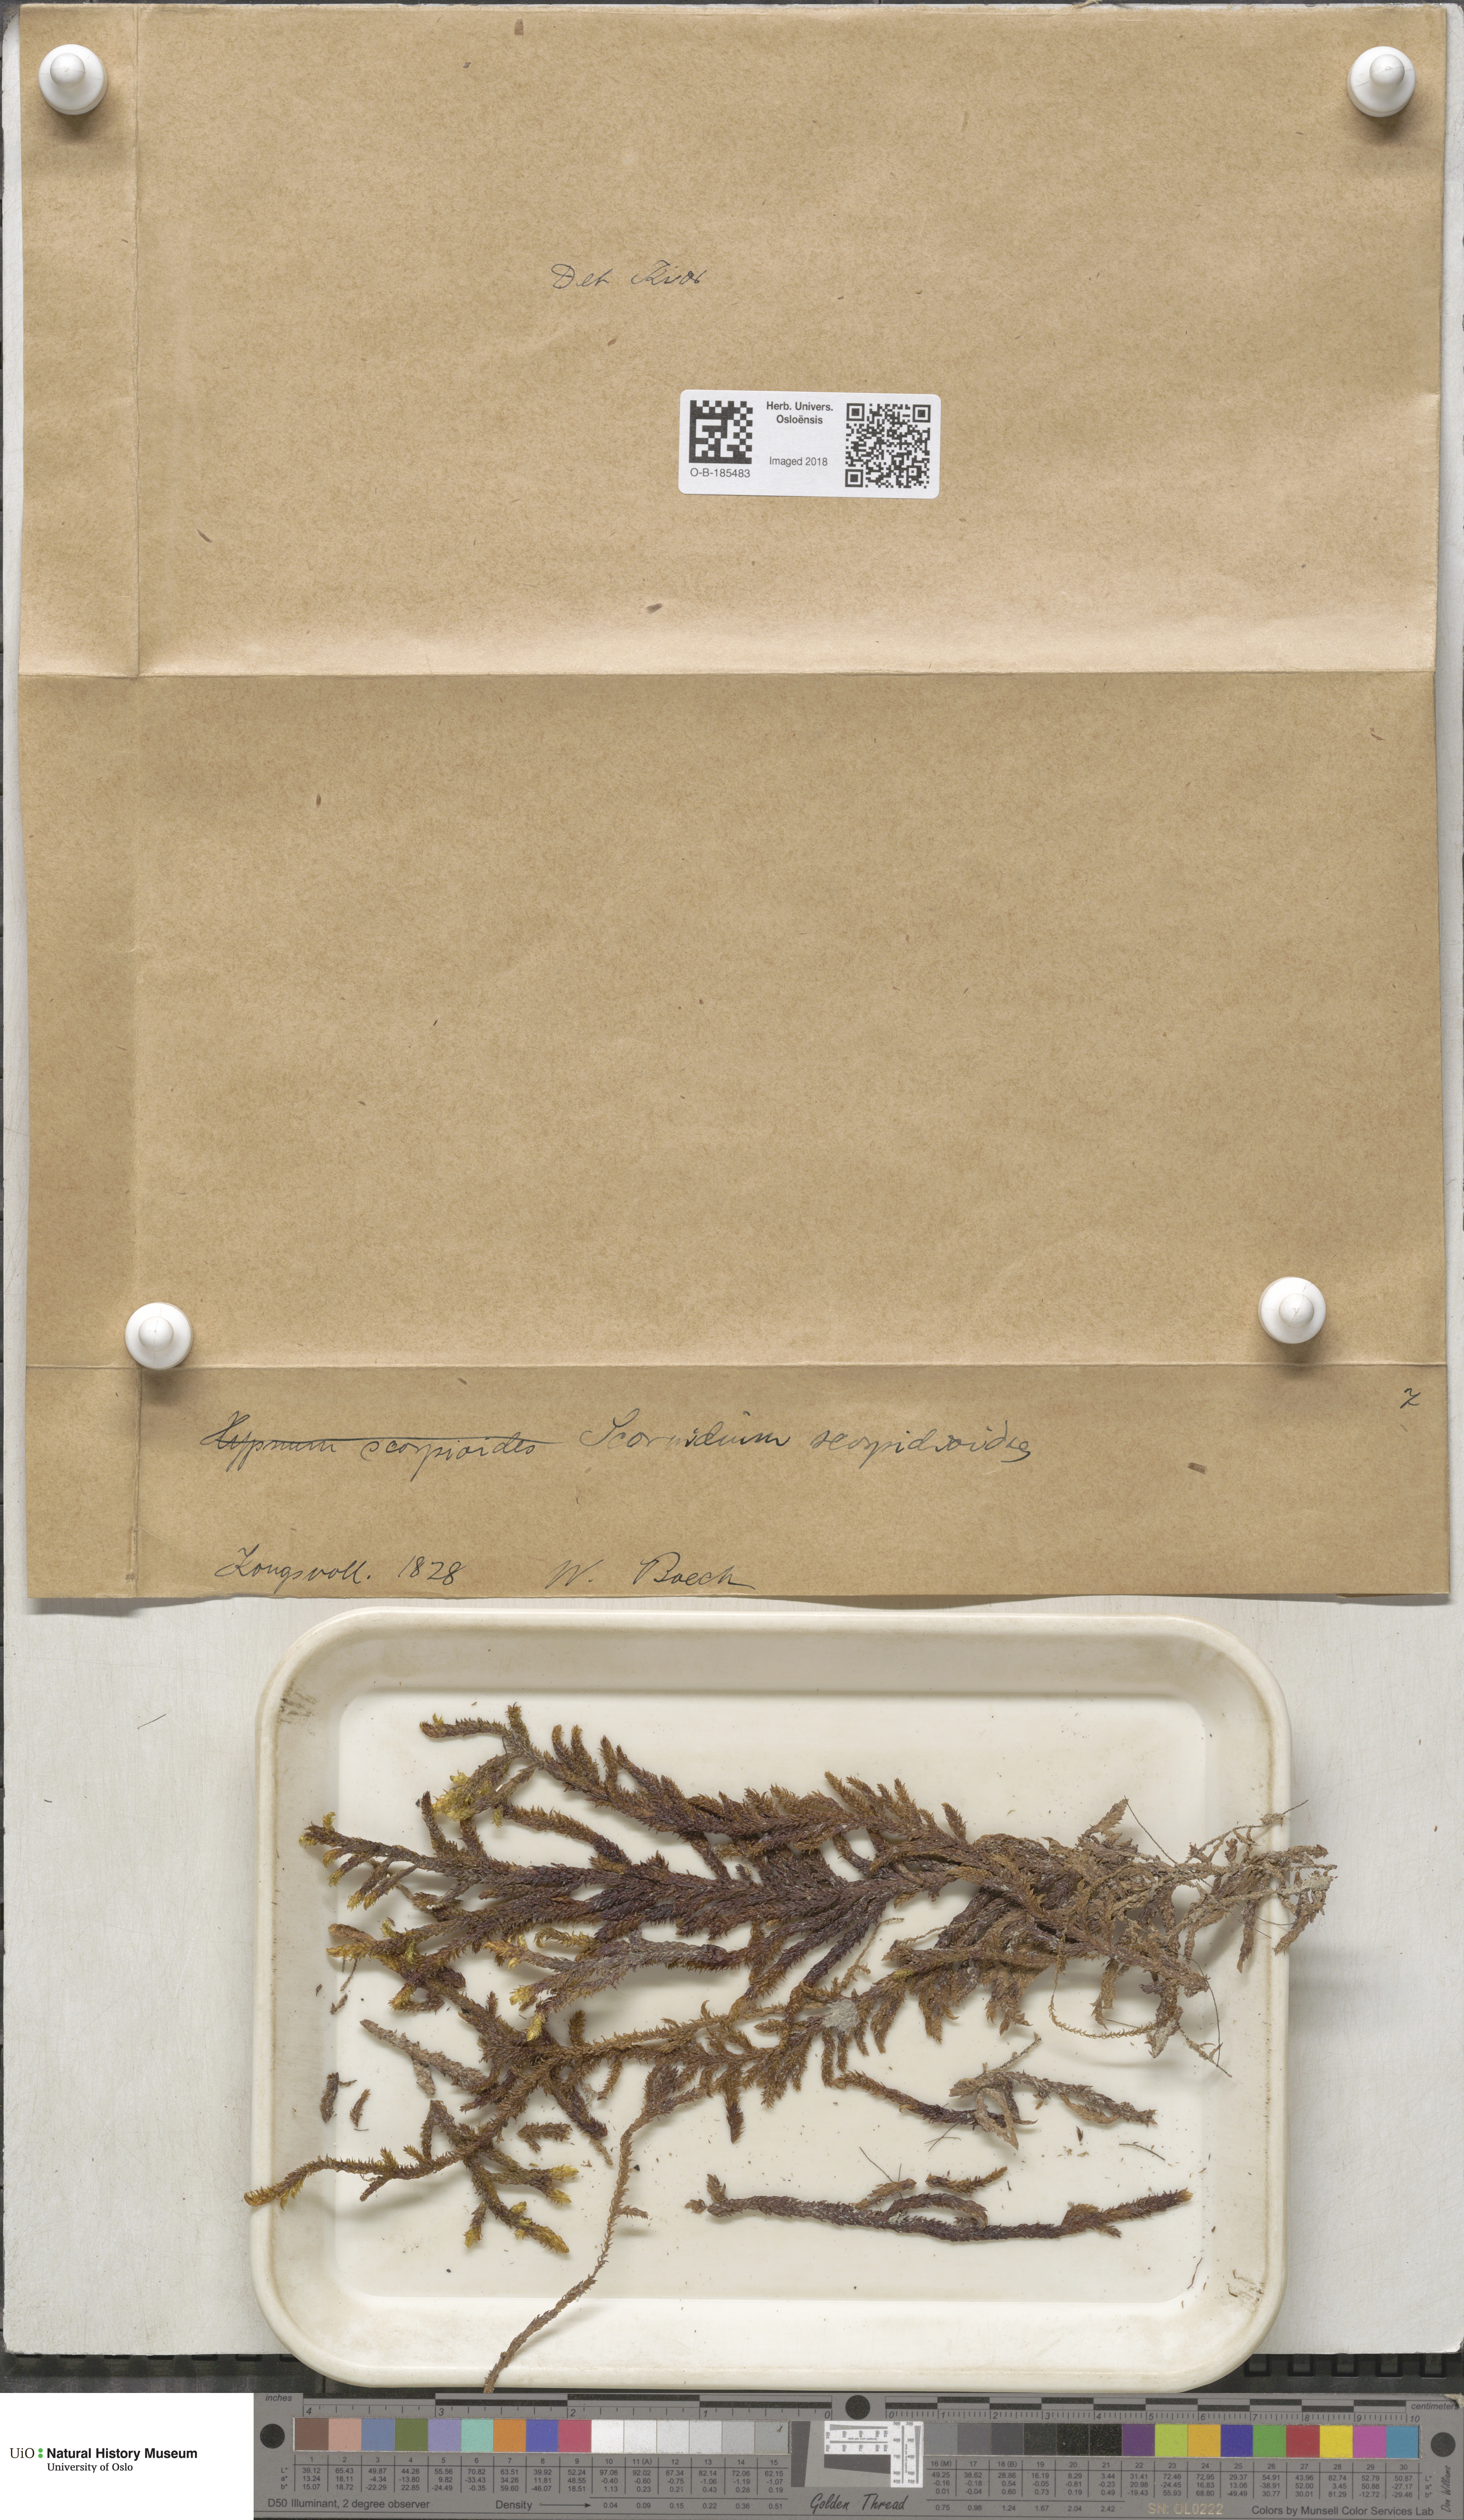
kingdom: Plantae
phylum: Bryophyta
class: Bryopsida
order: Hypnales
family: Scorpidiaceae
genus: Scorpidium
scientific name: Scorpidium scorpioides
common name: Hooked scorpion moss
